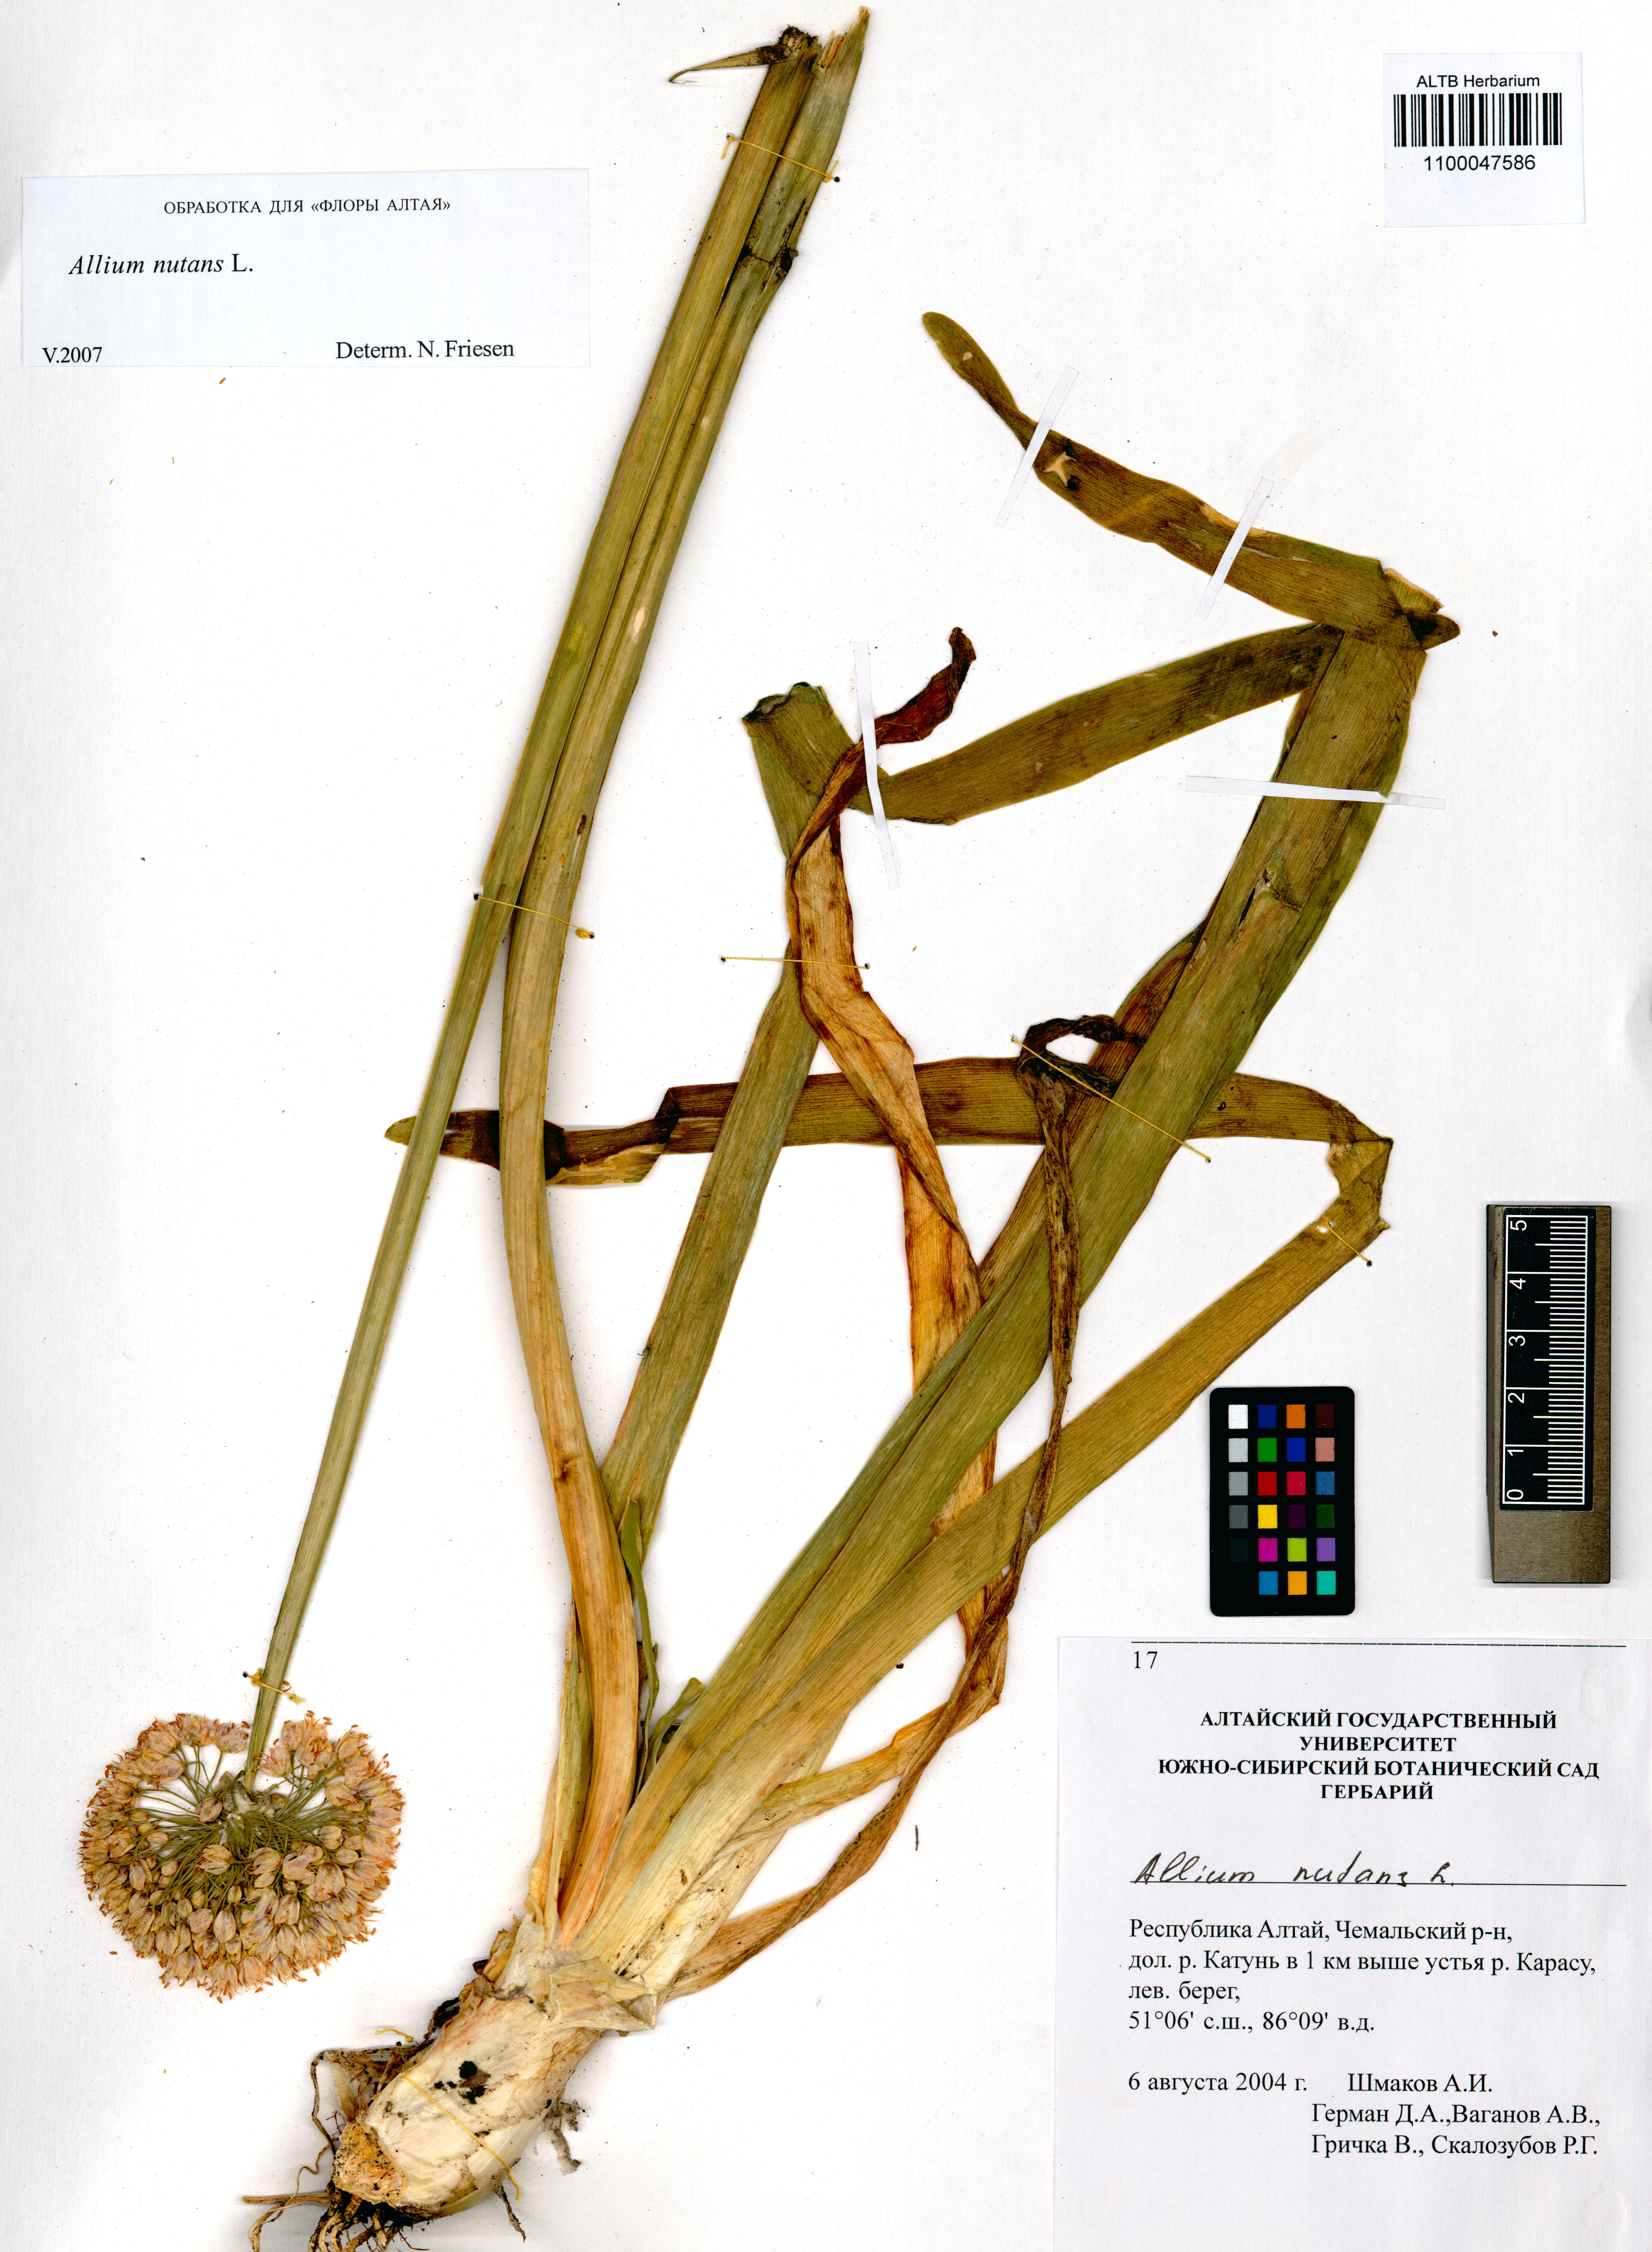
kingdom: Plantae
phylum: Tracheophyta
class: Liliopsida
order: Asparagales
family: Amaryllidaceae
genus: Allium
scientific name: Allium nutans
